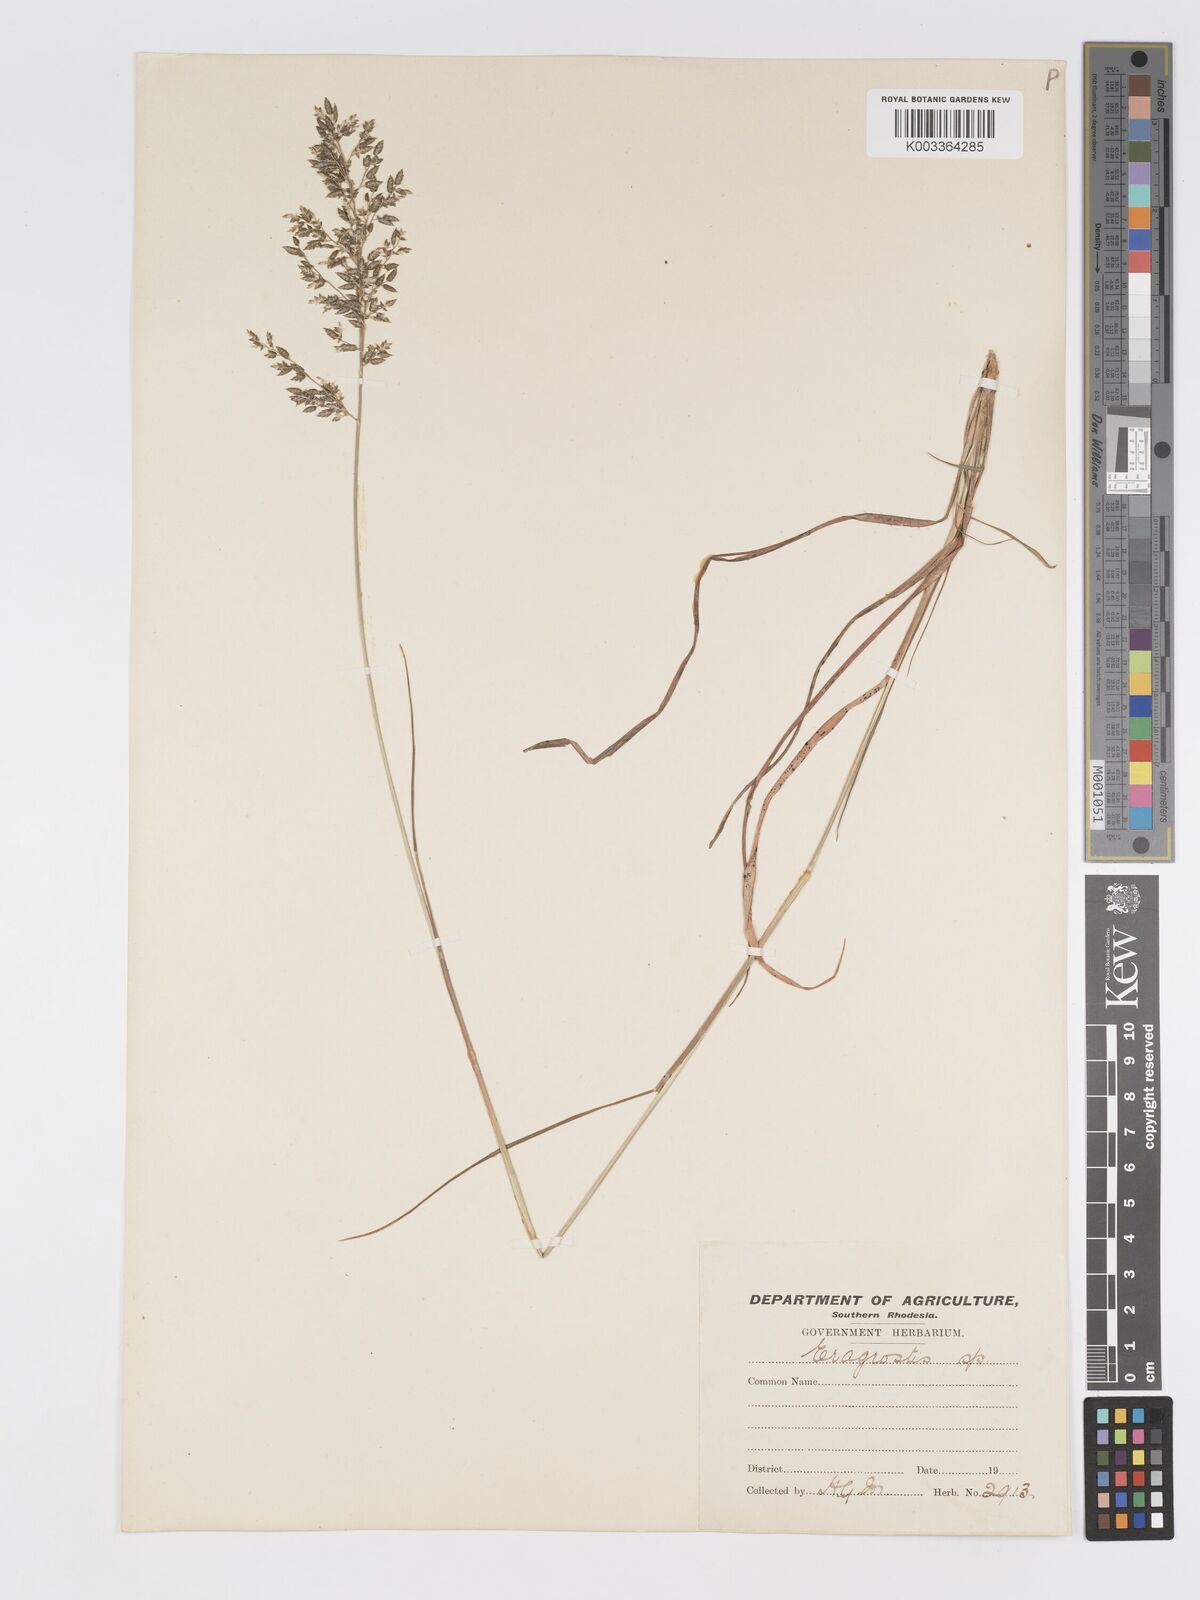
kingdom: Plantae
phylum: Tracheophyta
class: Liliopsida
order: Poales
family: Poaceae
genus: Eragrostis
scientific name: Eragrostis racemosa
